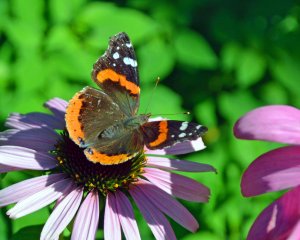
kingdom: Animalia
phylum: Arthropoda
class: Insecta
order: Lepidoptera
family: Nymphalidae
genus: Vanessa
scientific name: Vanessa atalanta
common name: Red Admiral
